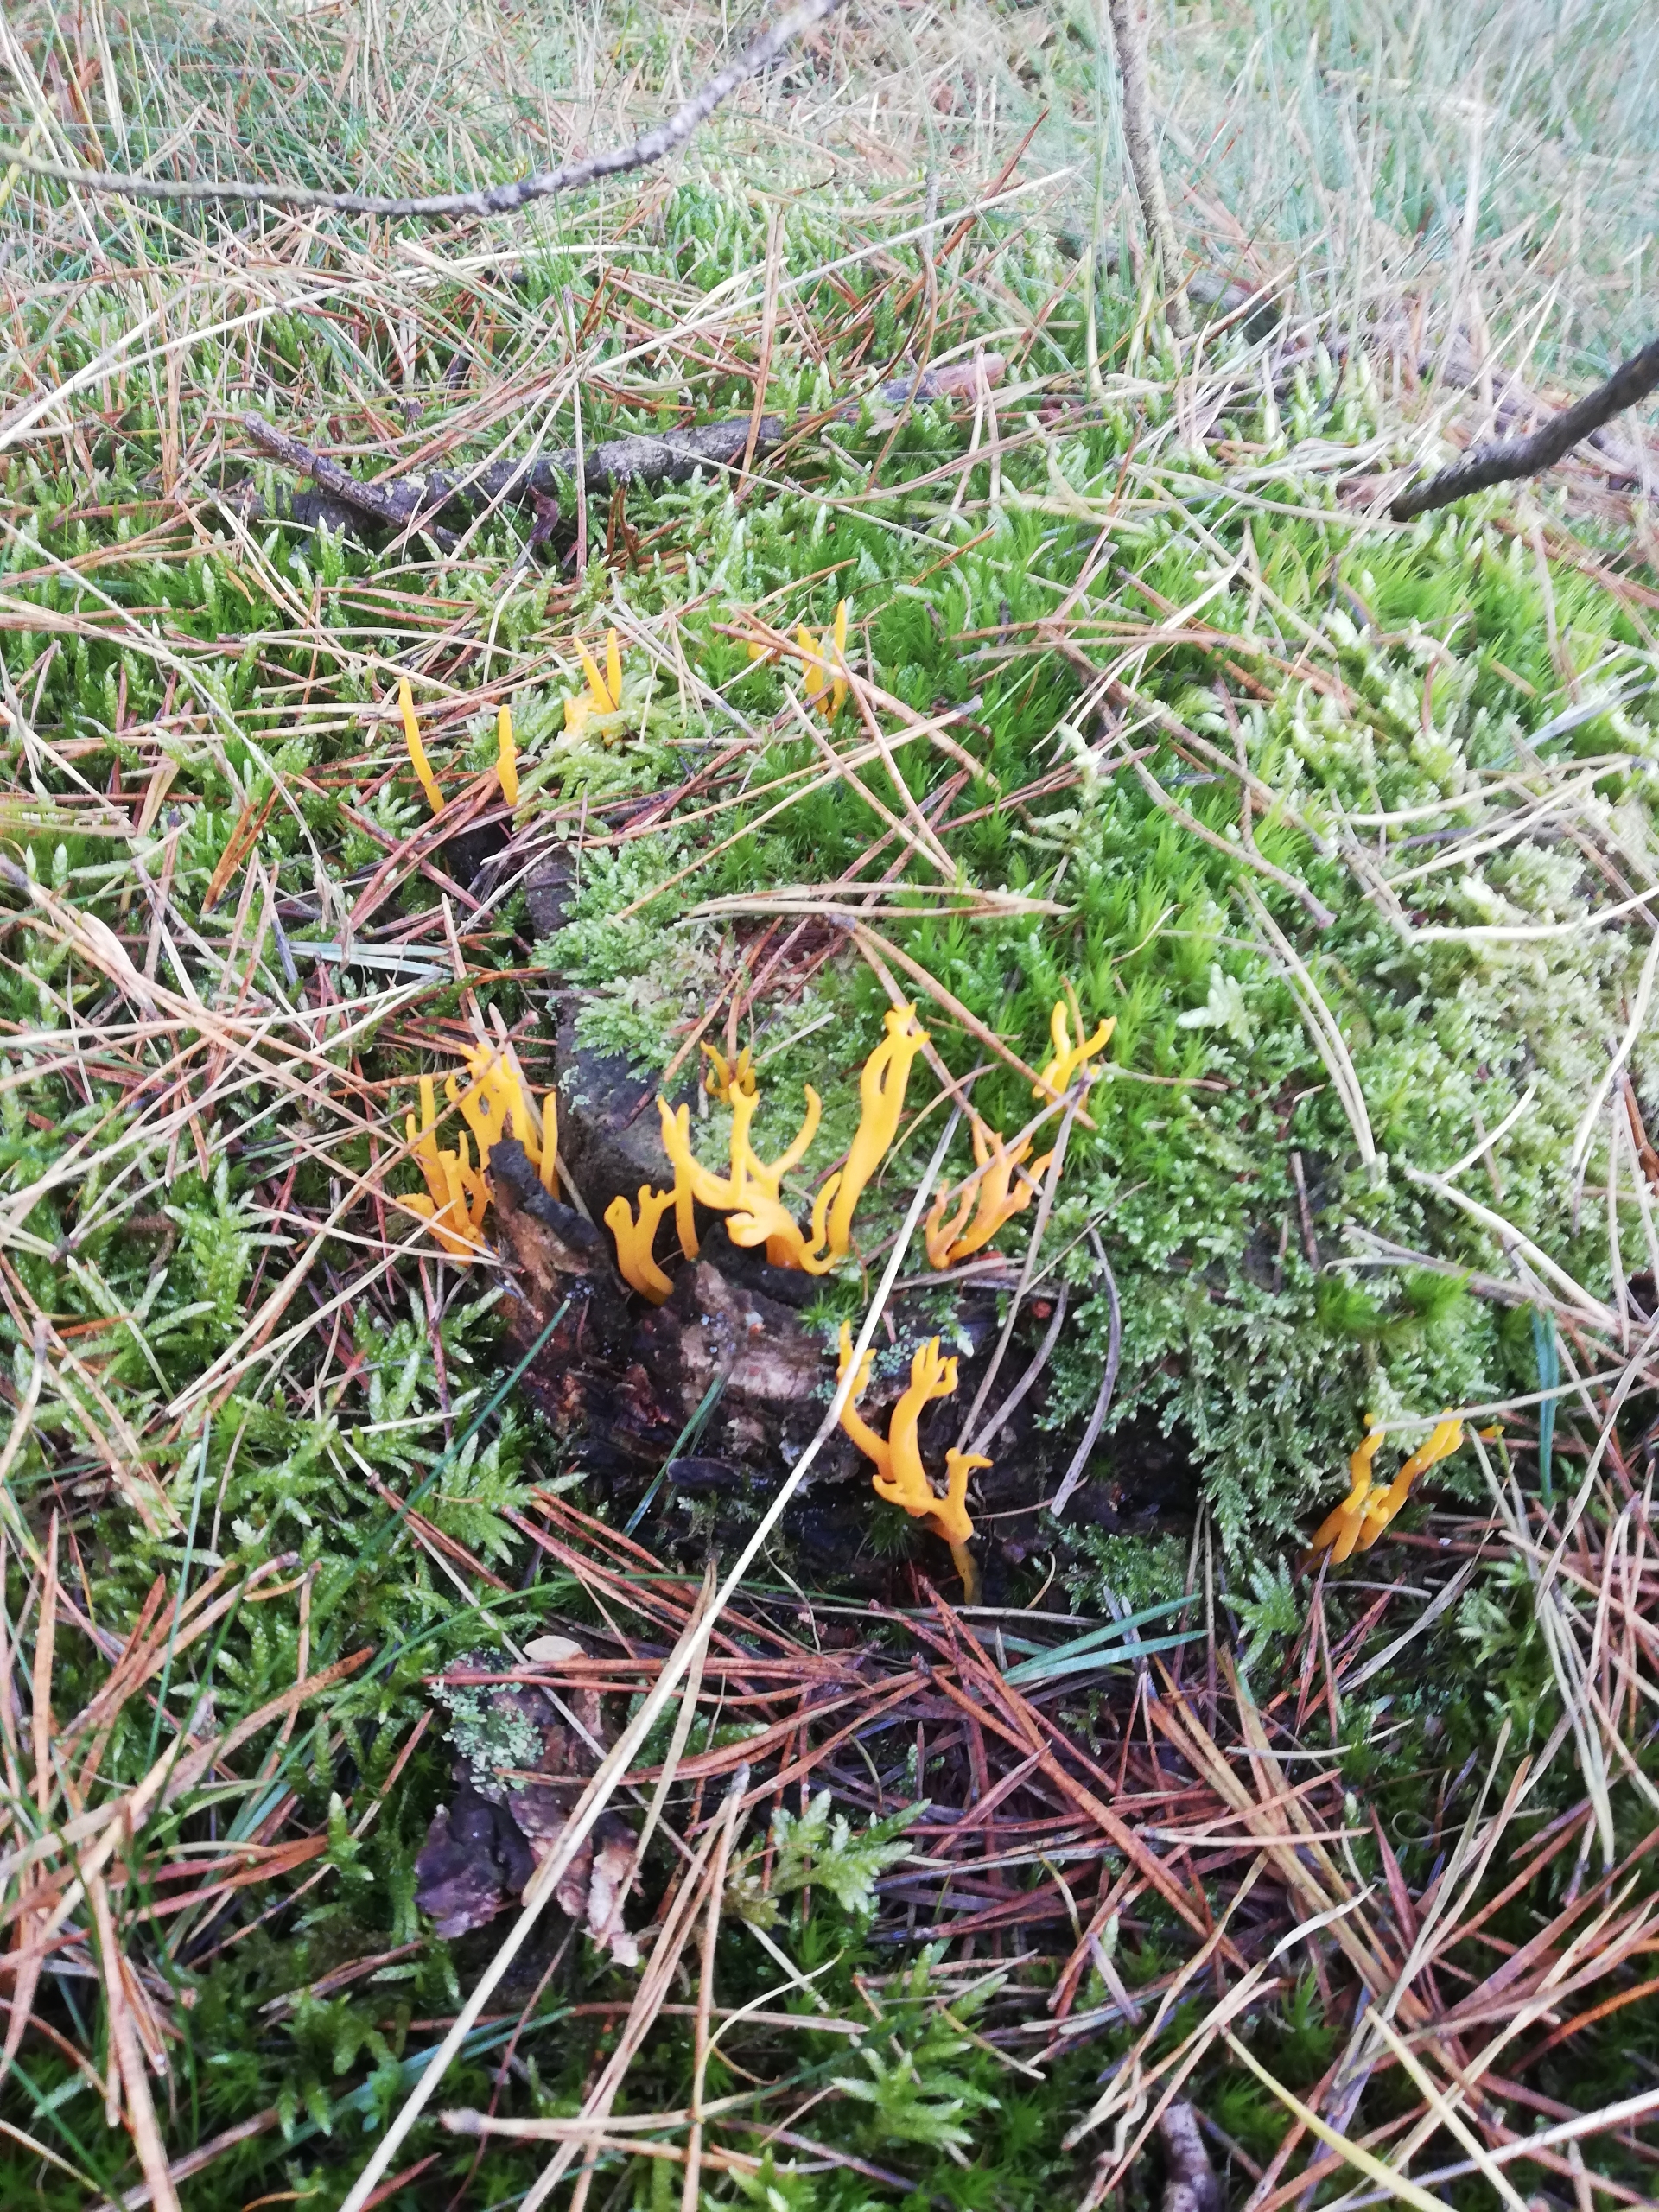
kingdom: Fungi
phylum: Basidiomycota
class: Dacrymycetes
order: Dacrymycetales
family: Dacrymycetaceae
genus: Calocera
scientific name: Calocera viscosa
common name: Almindelig guldgaffel
